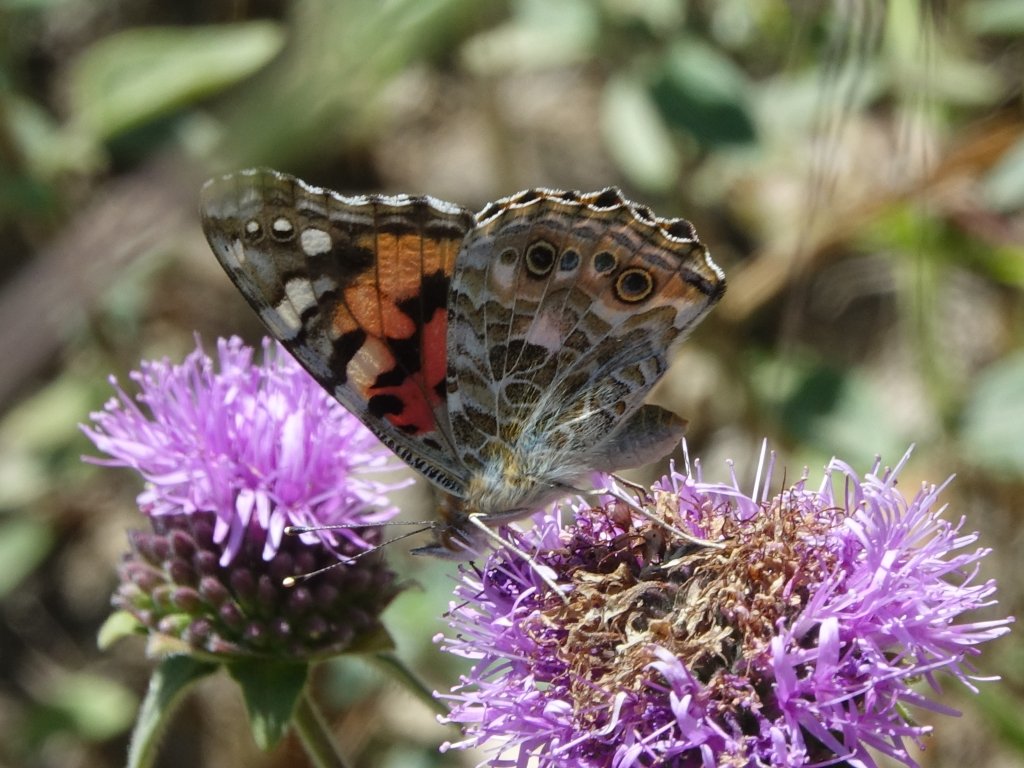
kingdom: Animalia
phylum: Arthropoda
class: Insecta
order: Lepidoptera
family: Nymphalidae
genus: Vanessa
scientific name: Vanessa cardui
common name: Painted Lady
